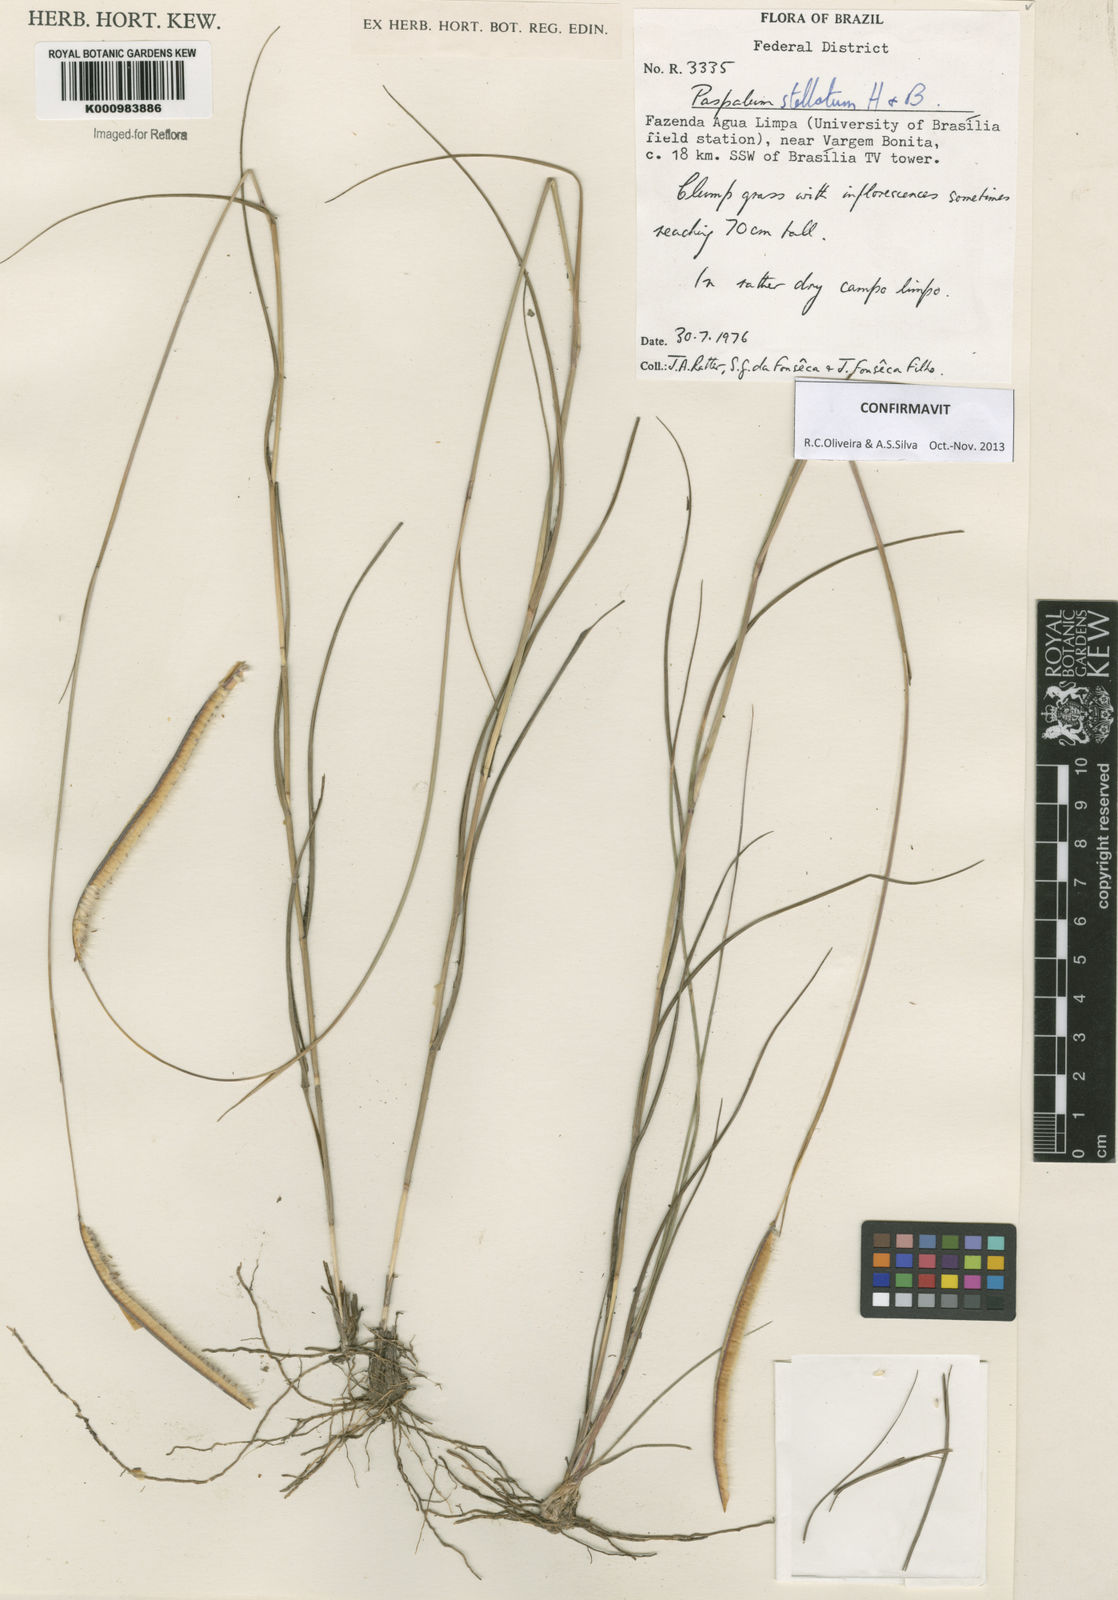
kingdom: Plantae
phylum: Tracheophyta
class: Liliopsida
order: Poales
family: Poaceae
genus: Paspalum
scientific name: Paspalum
